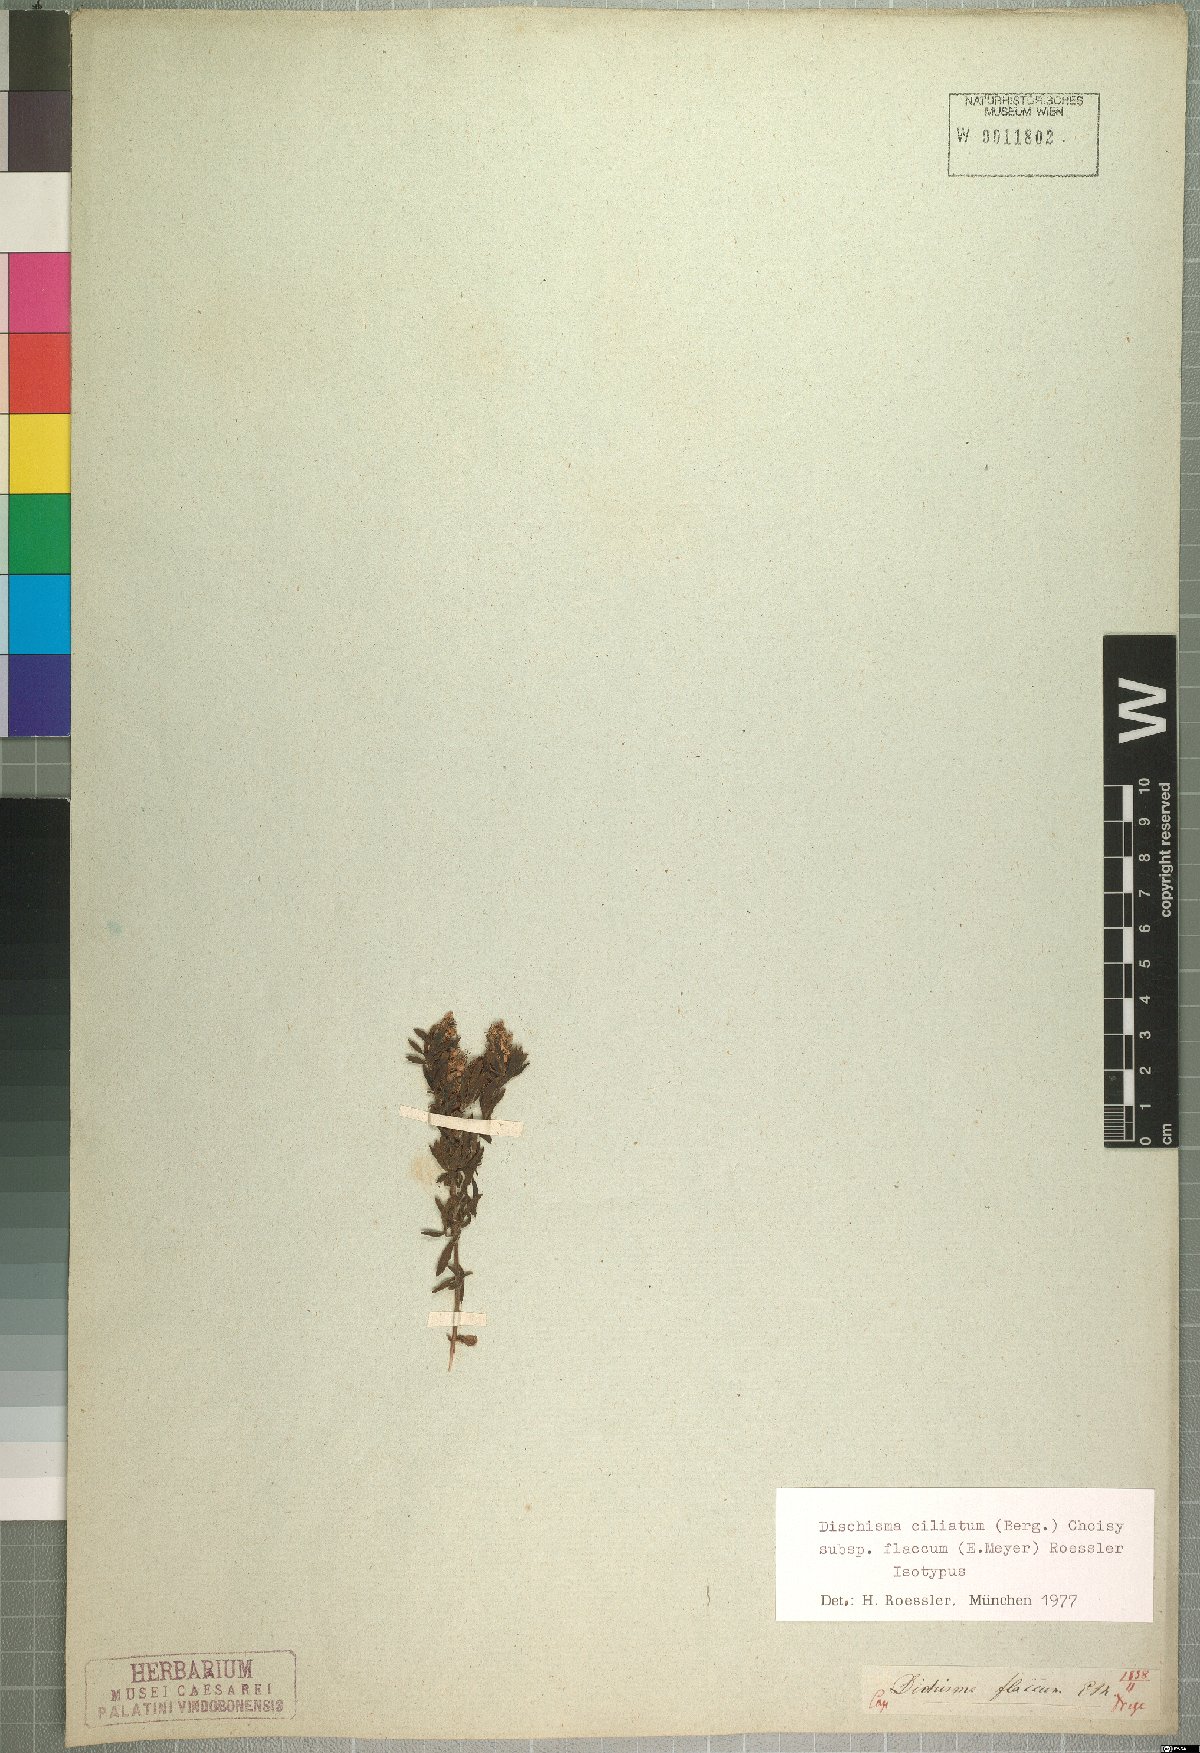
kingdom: Plantae
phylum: Tracheophyta
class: Magnoliopsida
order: Lamiales
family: Scrophulariaceae
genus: Dischisma
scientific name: Dischisma ciliatum
